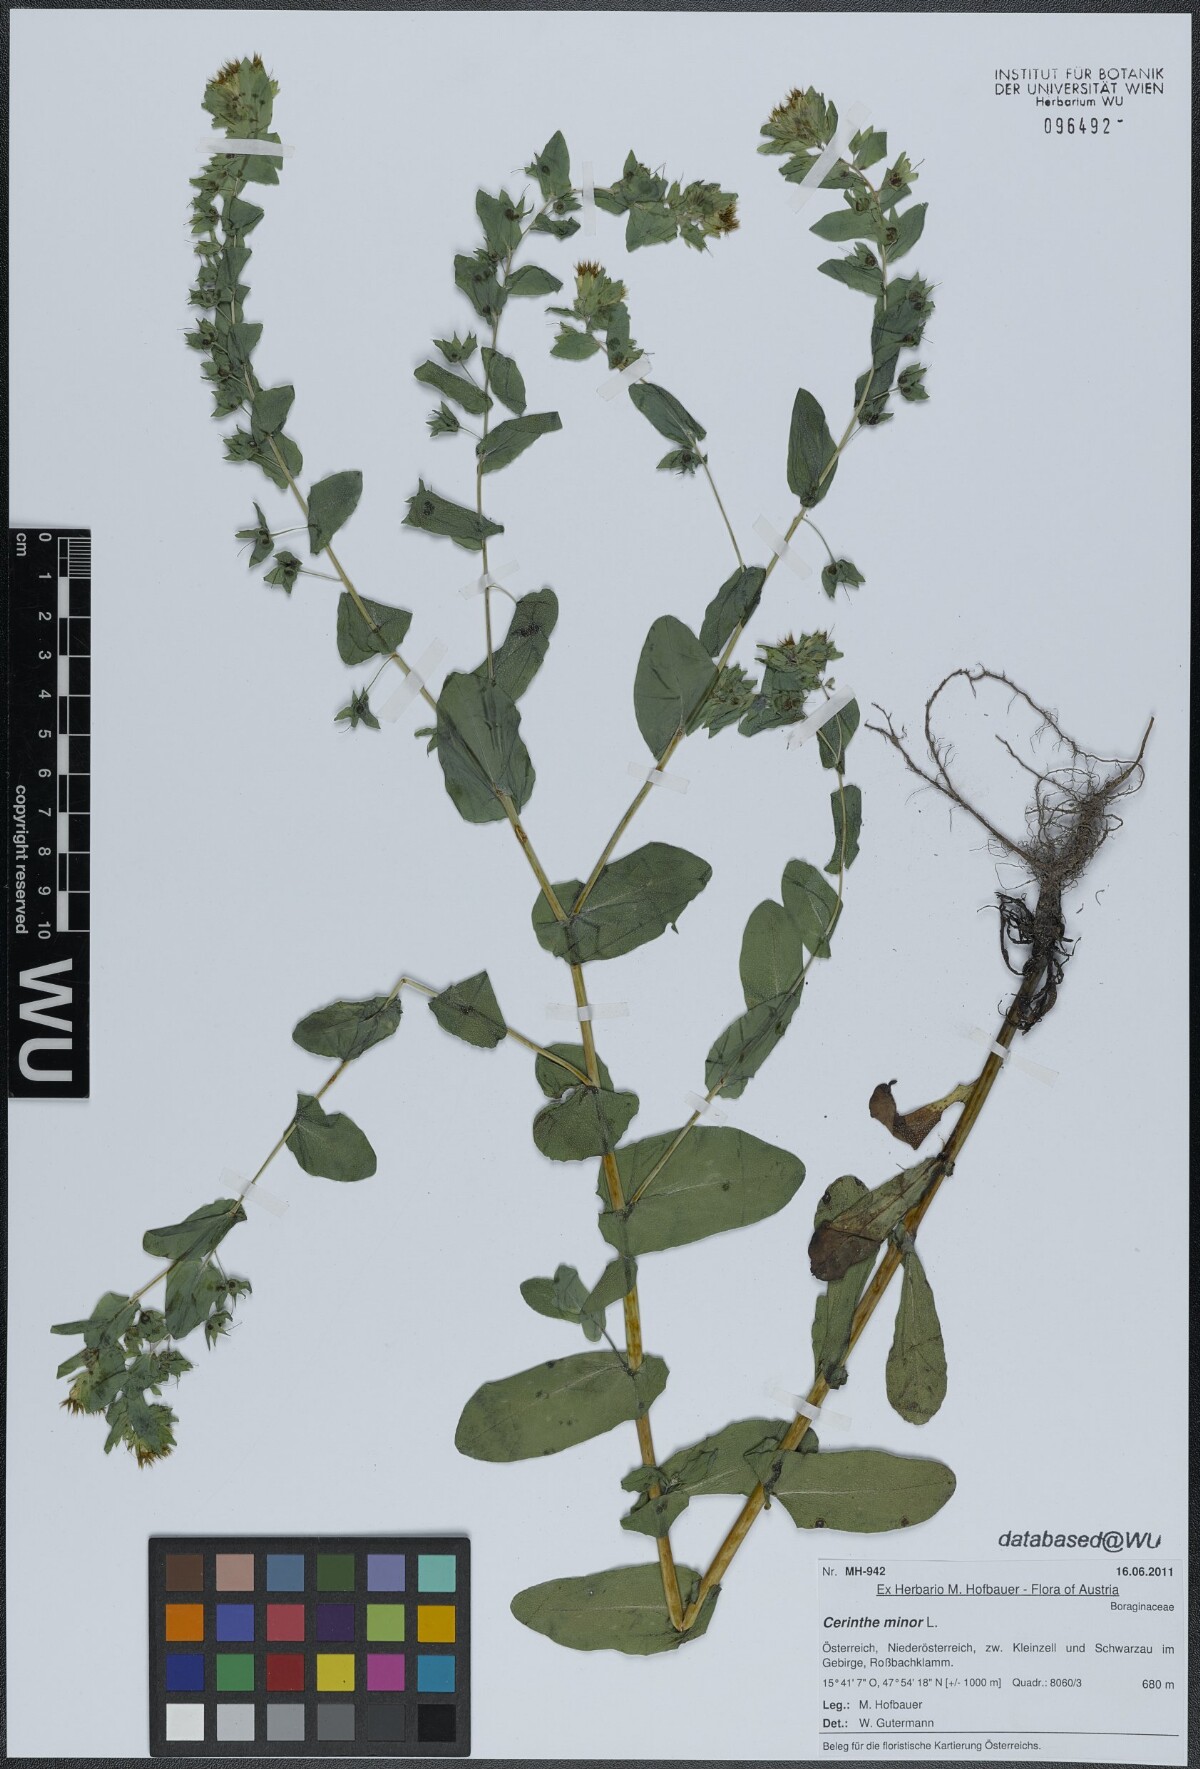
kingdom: Plantae
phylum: Tracheophyta
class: Magnoliopsida
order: Boraginales
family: Boraginaceae
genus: Cerinthe
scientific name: Cerinthe minor
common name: Lesser honeywort
